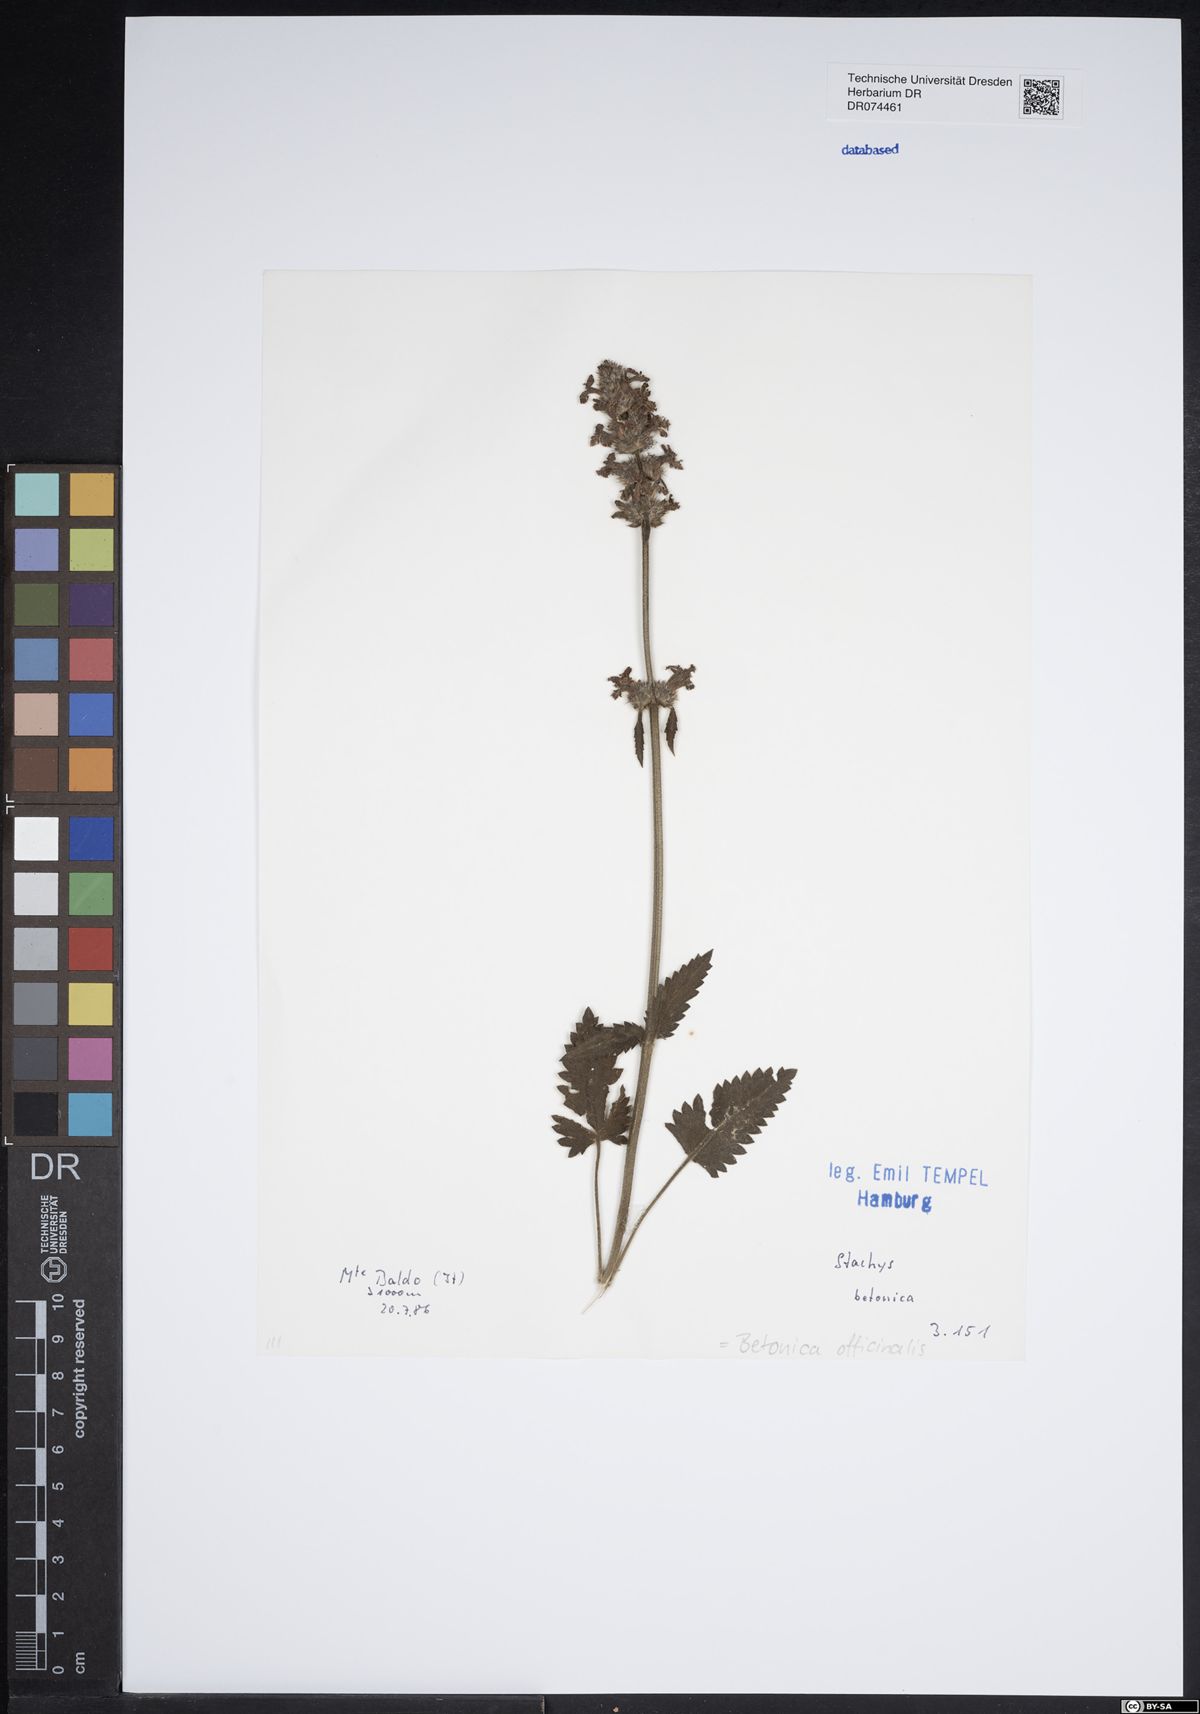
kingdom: Plantae
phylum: Tracheophyta
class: Magnoliopsida
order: Lamiales
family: Lamiaceae
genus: Betonica
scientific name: Betonica officinalis
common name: Bishop's-wort
